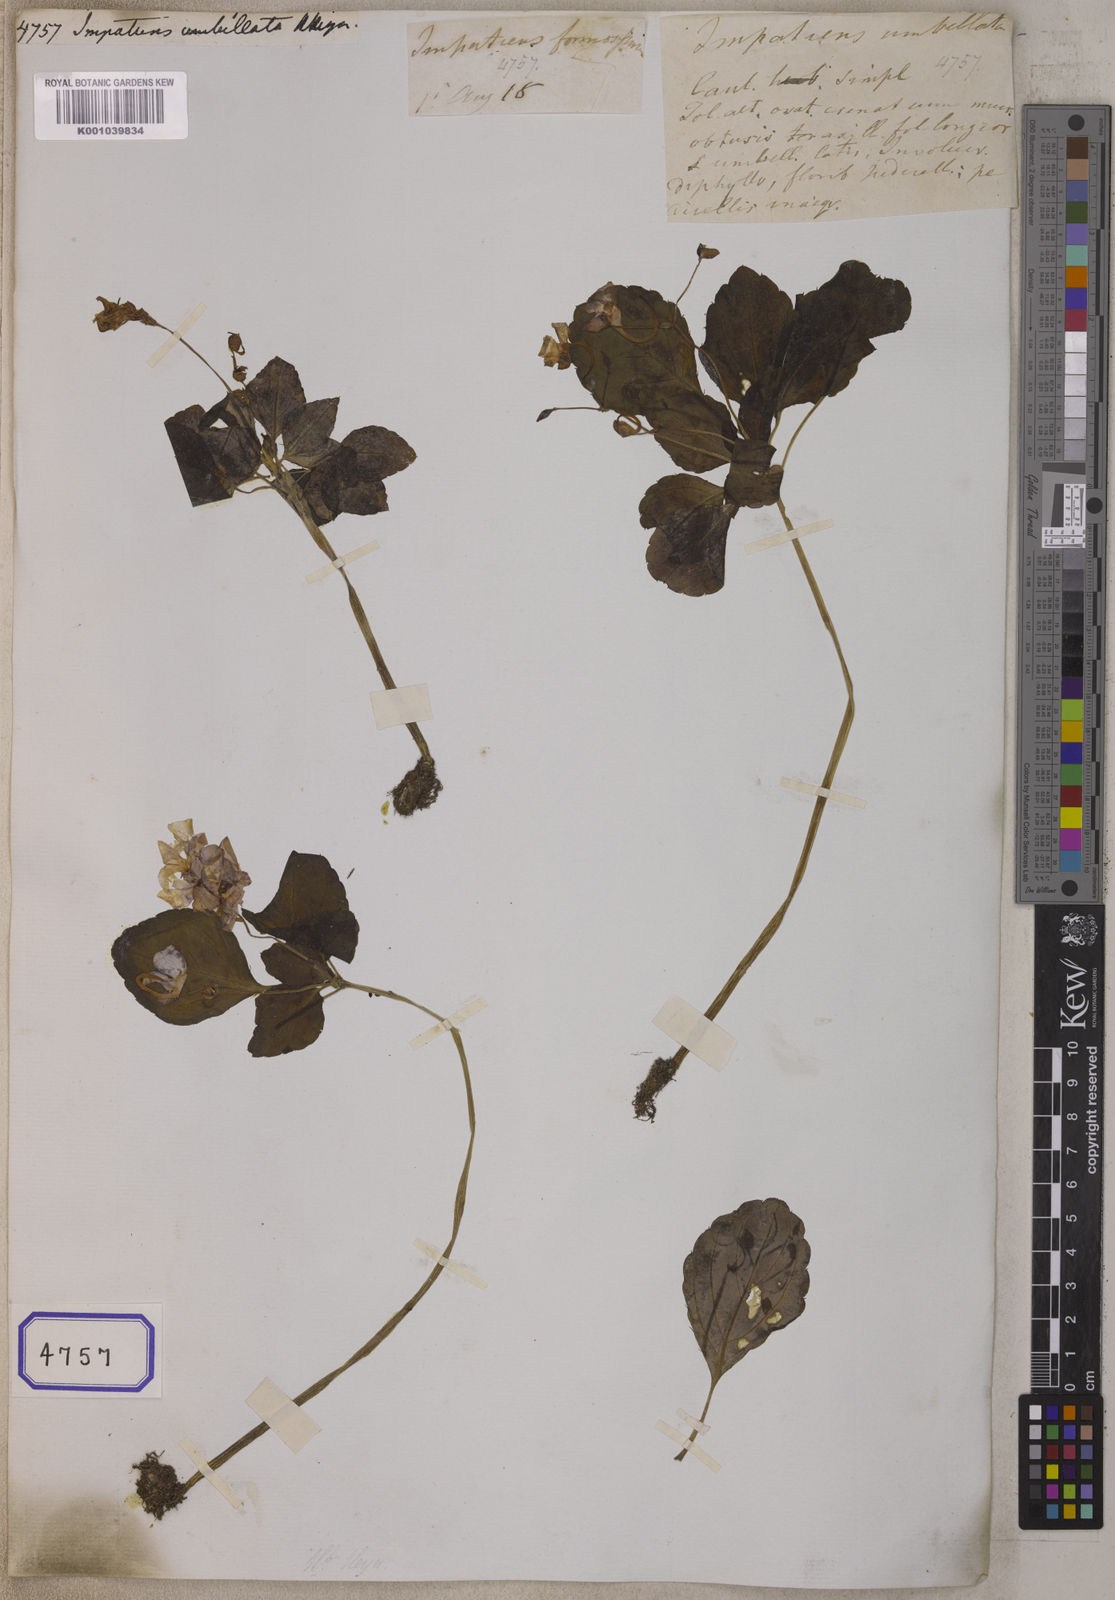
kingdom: Plantae
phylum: Tracheophyta
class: Magnoliopsida
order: Ericales
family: Balsaminaceae
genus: Impatiens
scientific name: Impatiens umbellata
